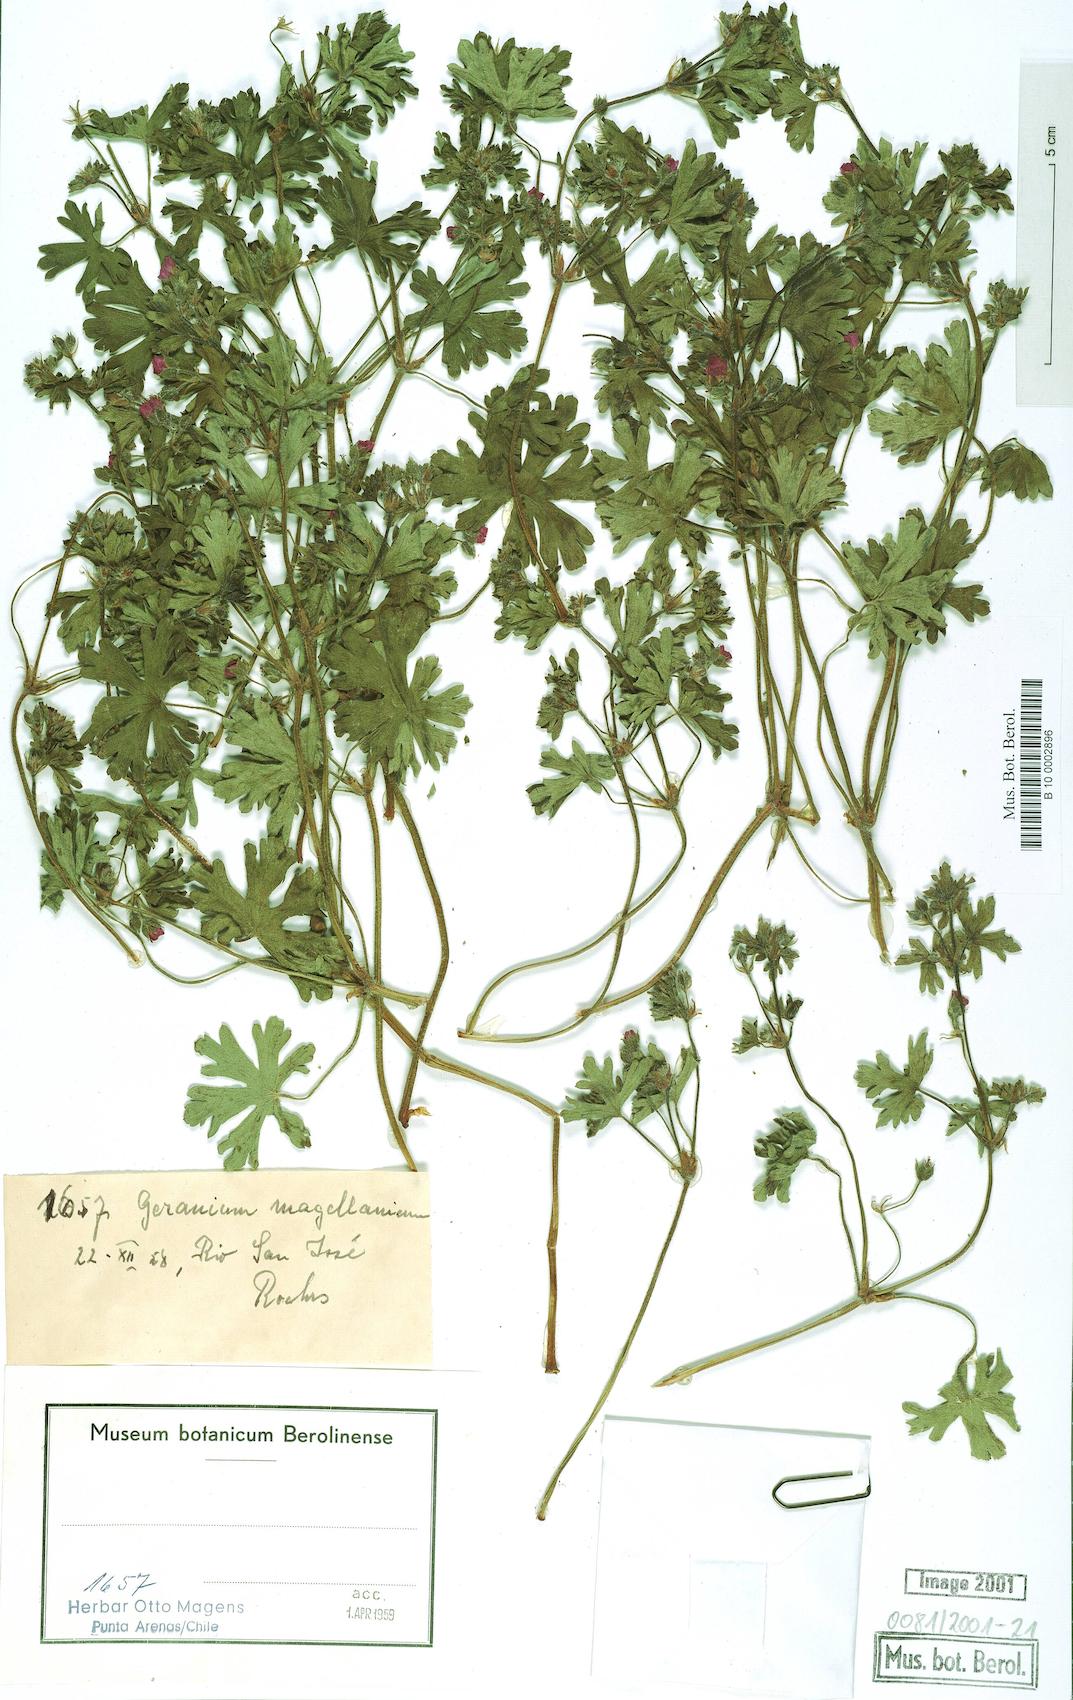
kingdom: Plantae
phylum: Tracheophyta
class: Magnoliopsida
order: Geraniales
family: Geraniaceae
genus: Geranium
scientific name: Geranium magellanicum
